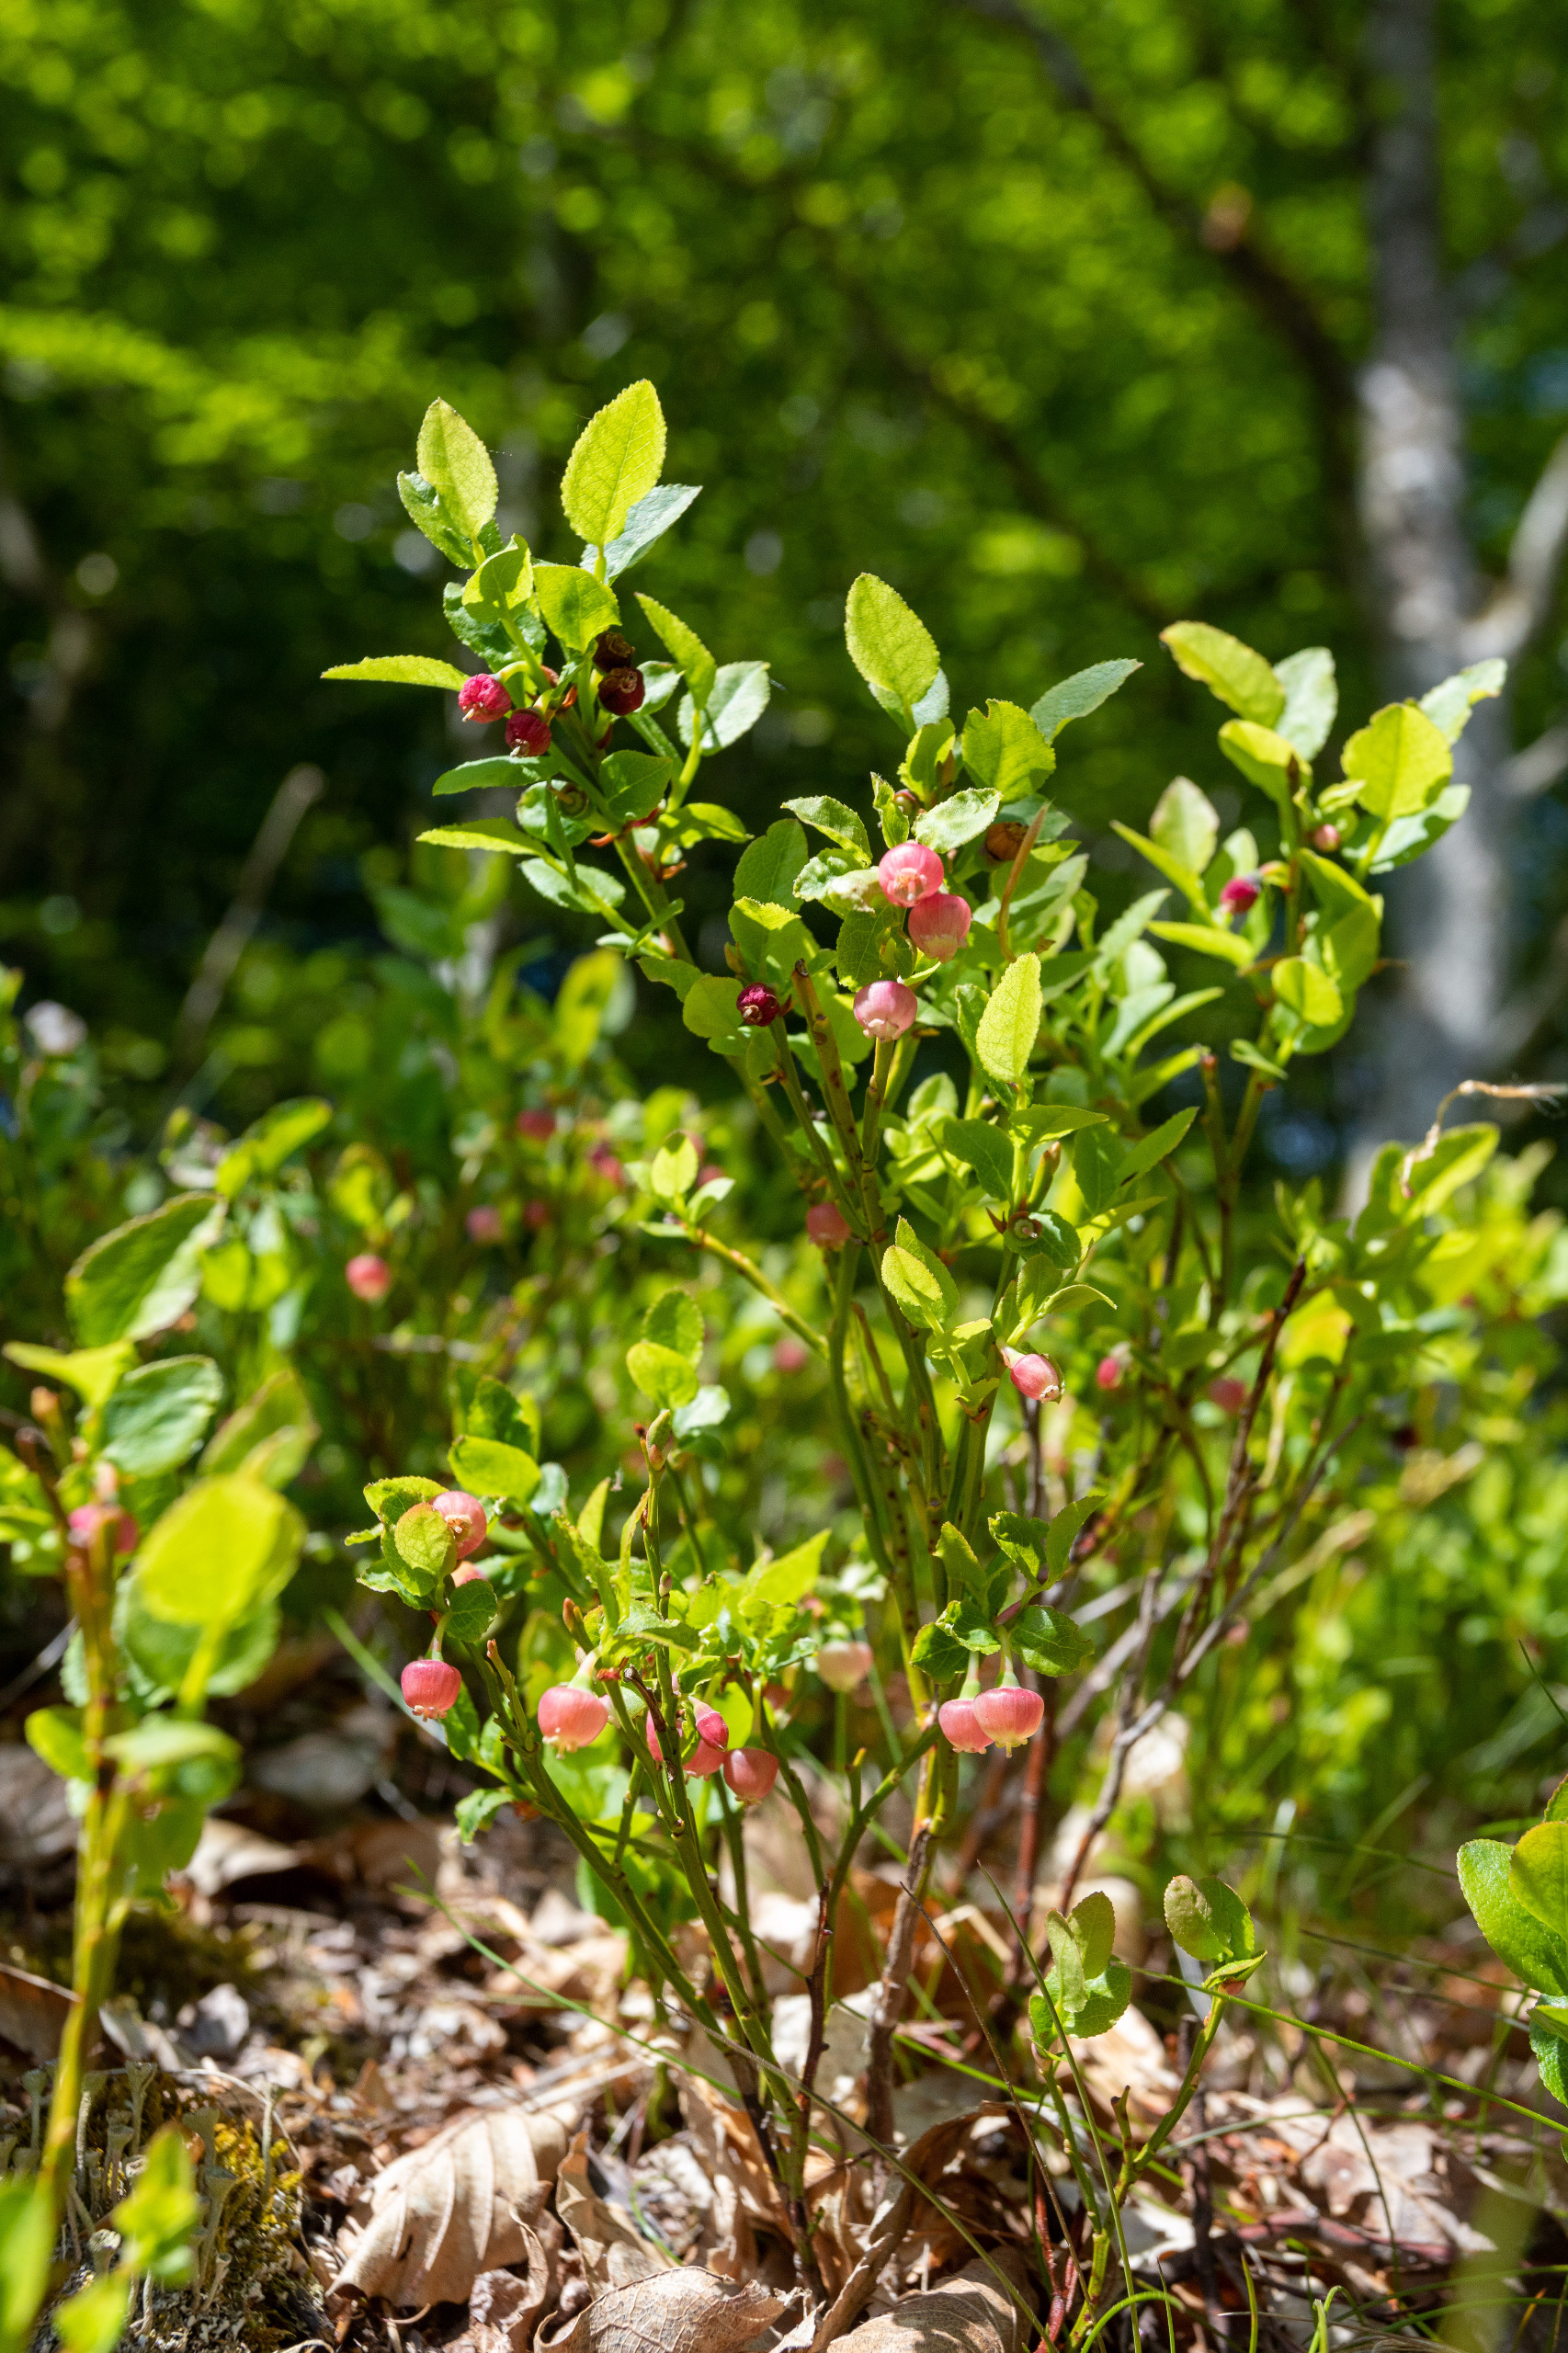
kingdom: Plantae
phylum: Tracheophyta
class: Magnoliopsida
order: Ericales
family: Ericaceae
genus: Vaccinium
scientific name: Vaccinium myrtillus
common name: Blåbær
